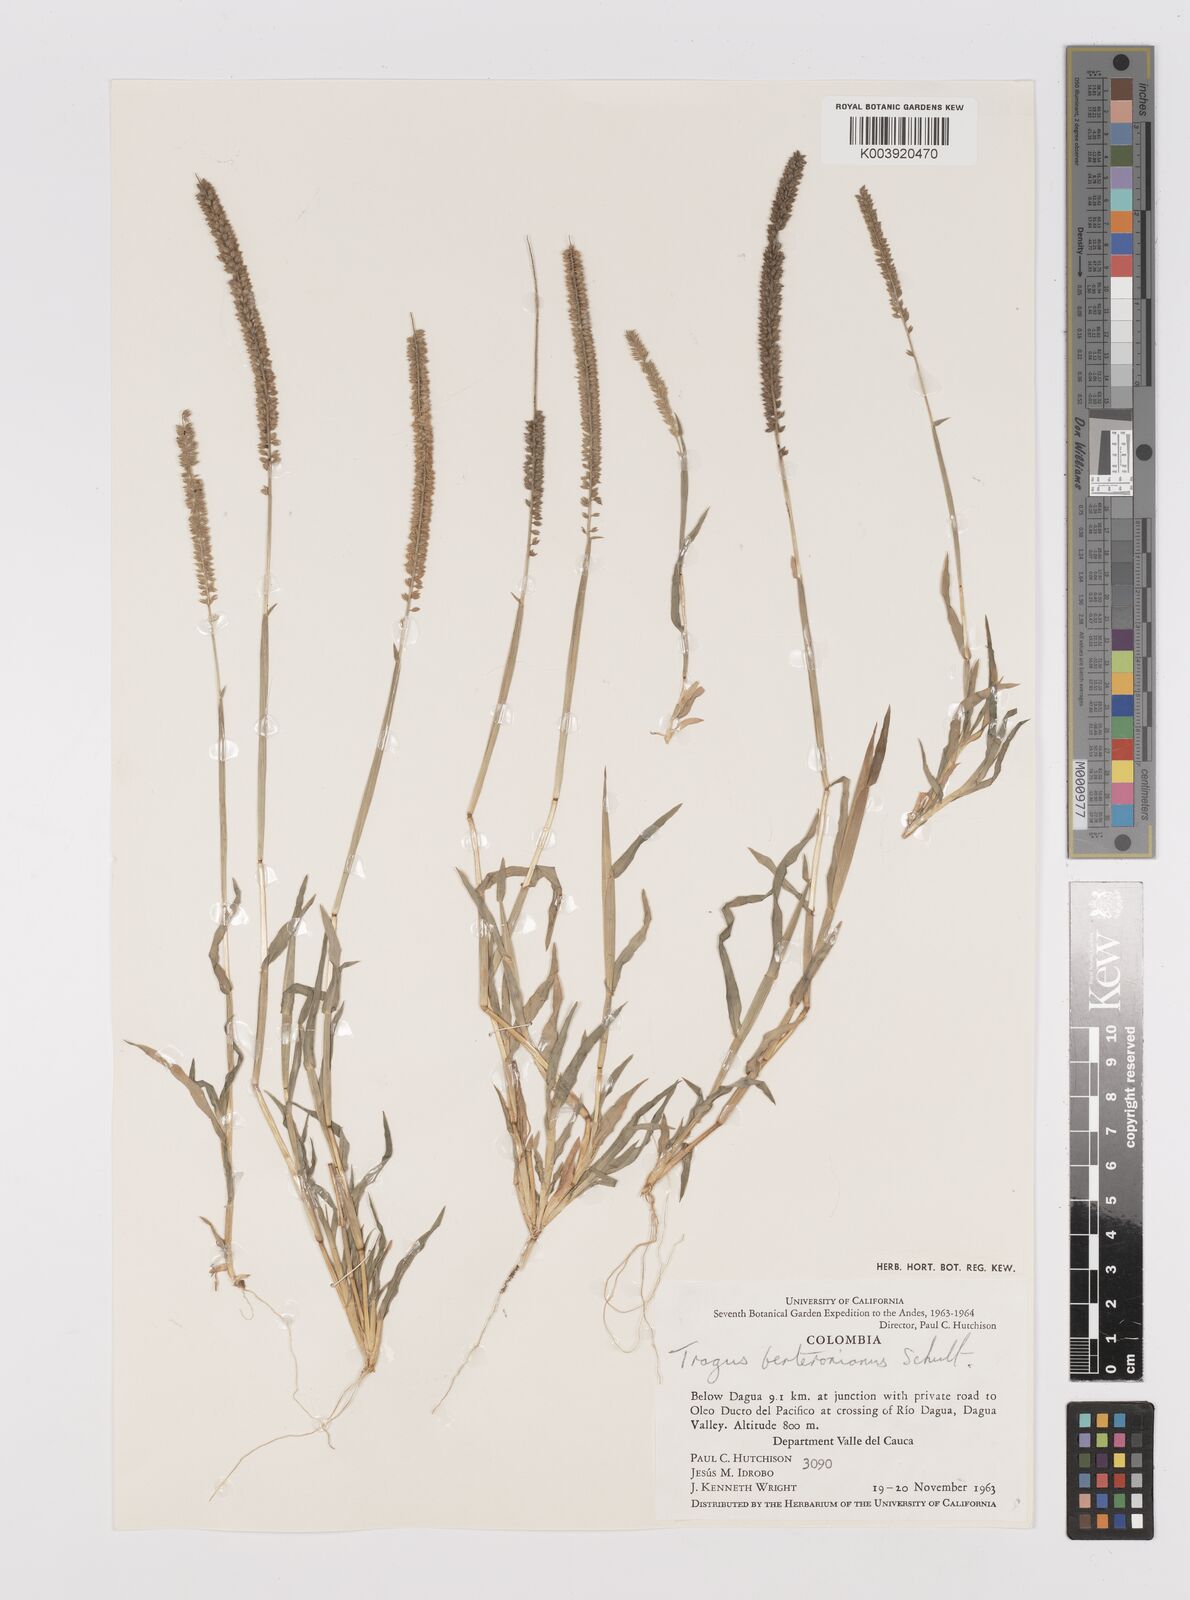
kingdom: Plantae
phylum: Tracheophyta
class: Liliopsida
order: Poales
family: Poaceae
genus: Tragus
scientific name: Tragus berteronianus
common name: African bur-grass
